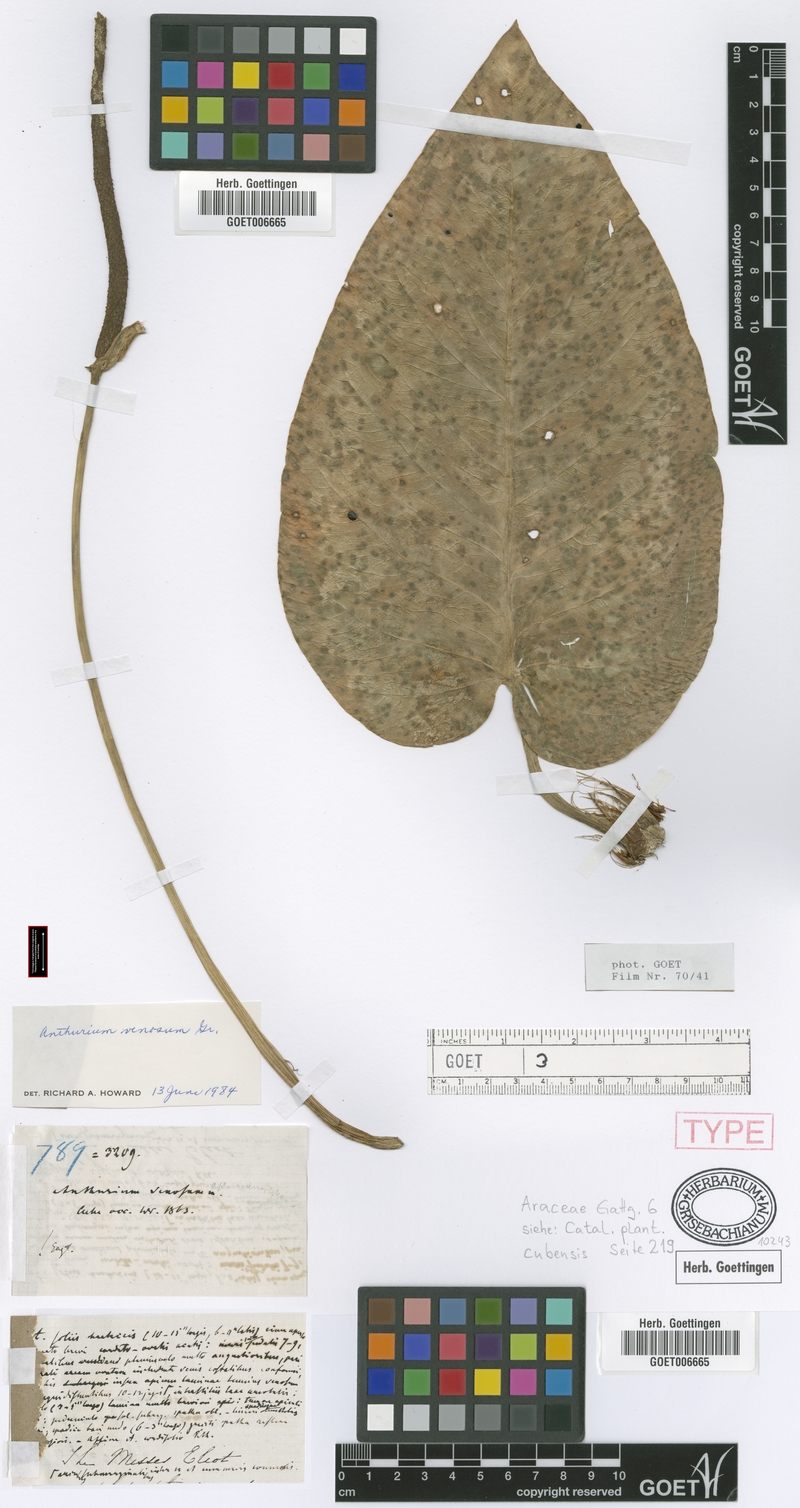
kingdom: Plantae
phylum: Tracheophyta
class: Liliopsida
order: Alismatales
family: Araceae
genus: Anthurium
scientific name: Anthurium venosum
